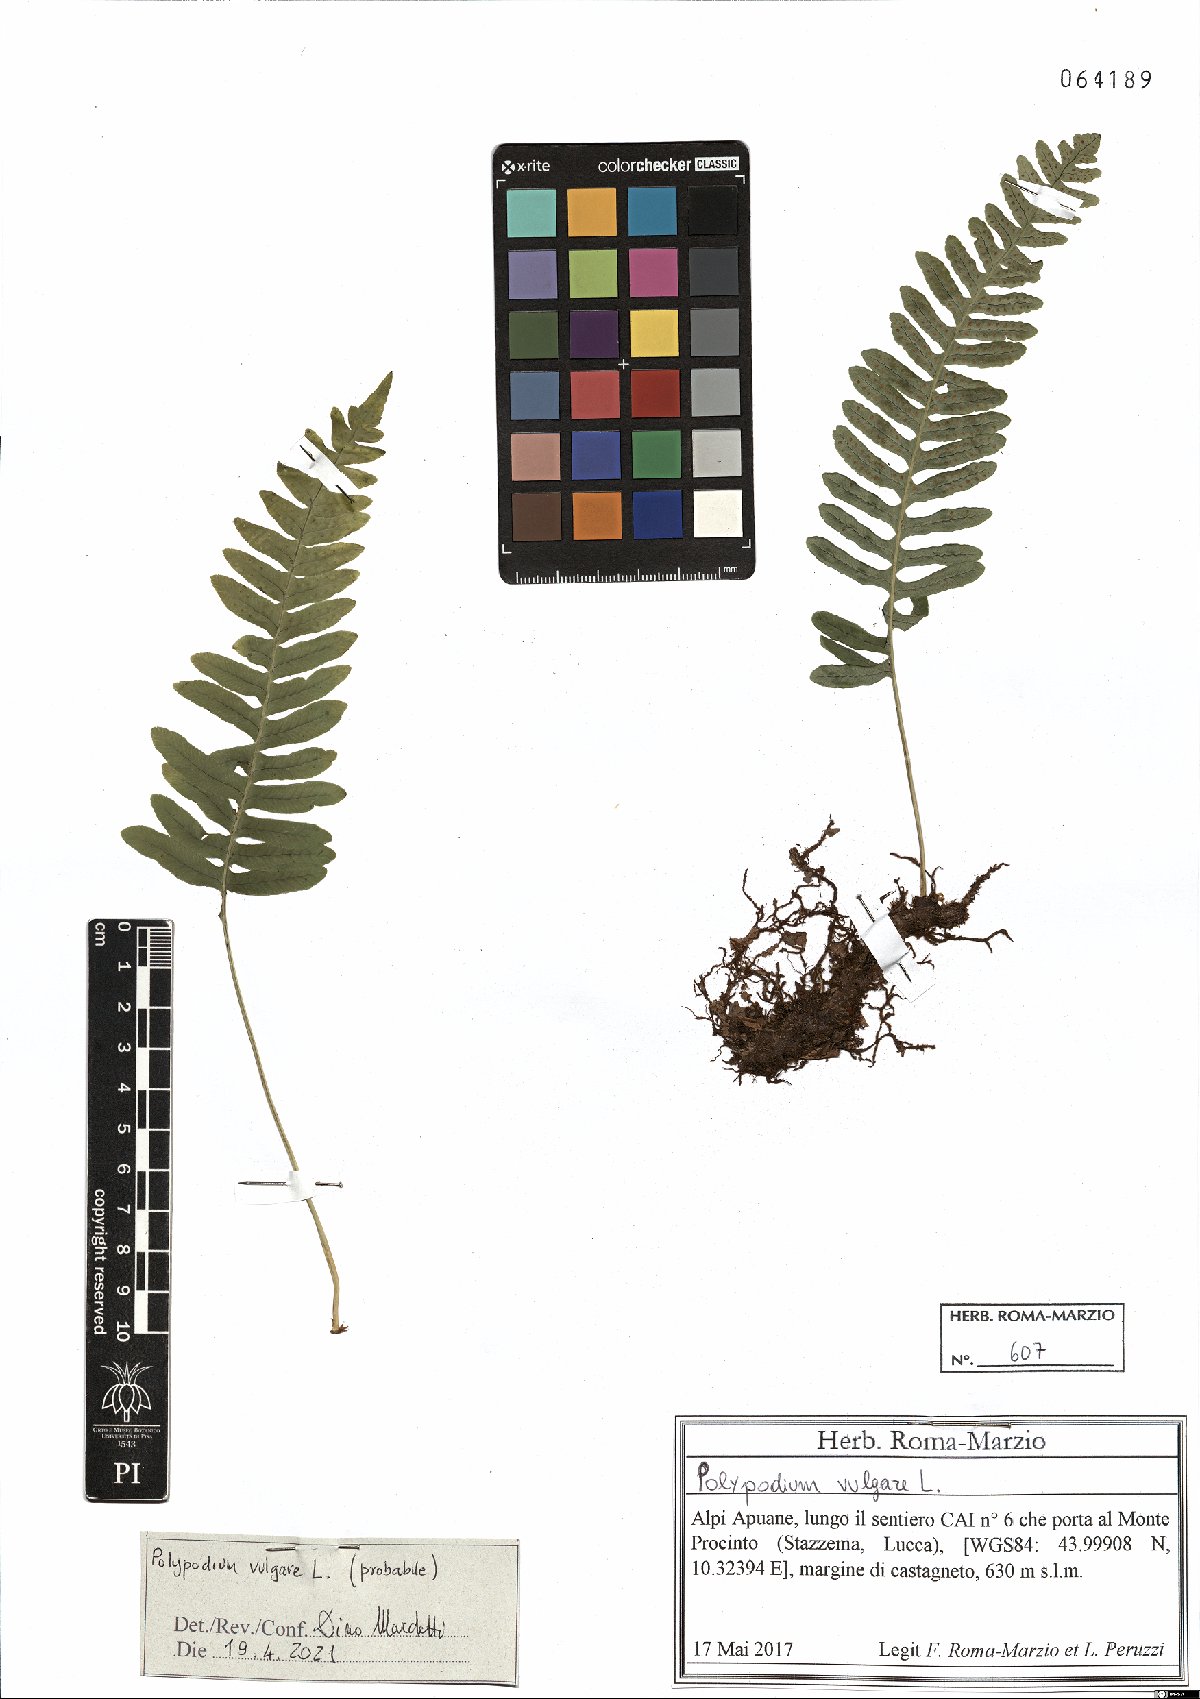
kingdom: Plantae
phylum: Tracheophyta
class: Polypodiopsida
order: Polypodiales
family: Polypodiaceae
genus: Polypodium
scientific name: Polypodium vulgare
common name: Common polypody
